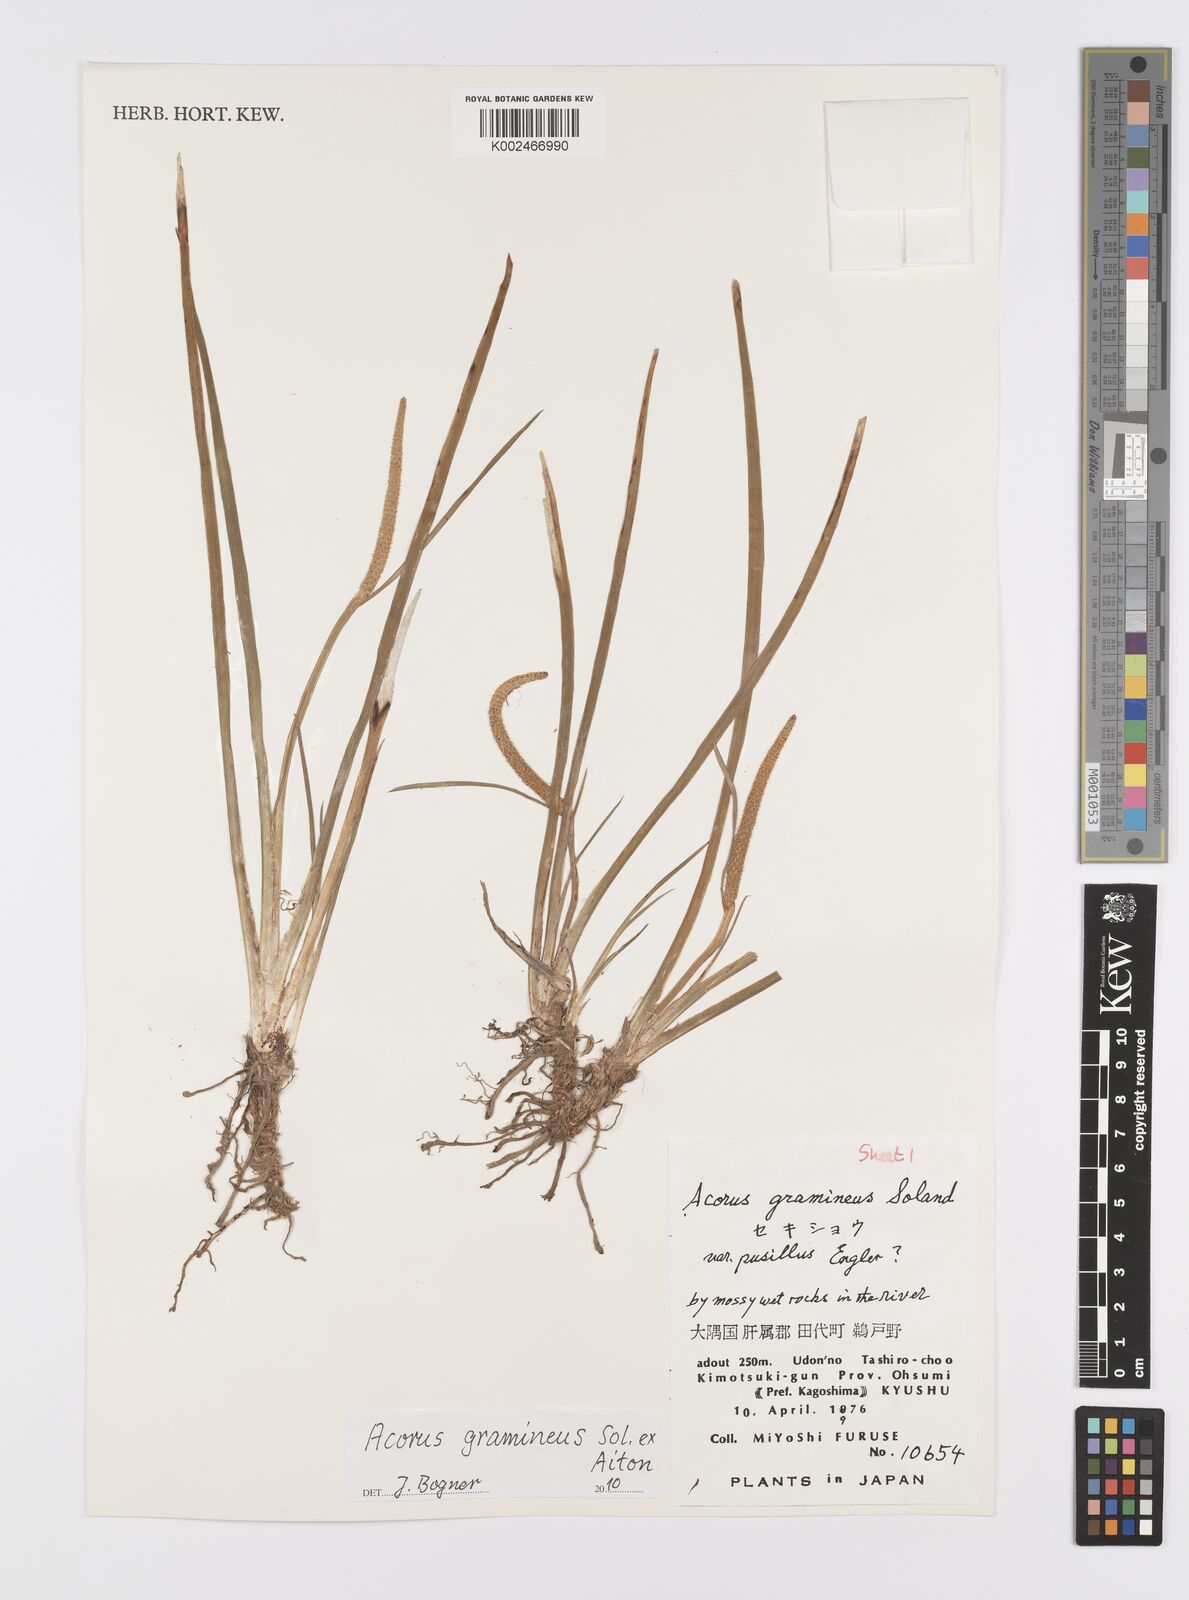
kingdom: Plantae
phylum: Tracheophyta
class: Liliopsida
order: Acorales
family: Acoraceae
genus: Acorus
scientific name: Acorus gramineus
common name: Slender sweet-flag
